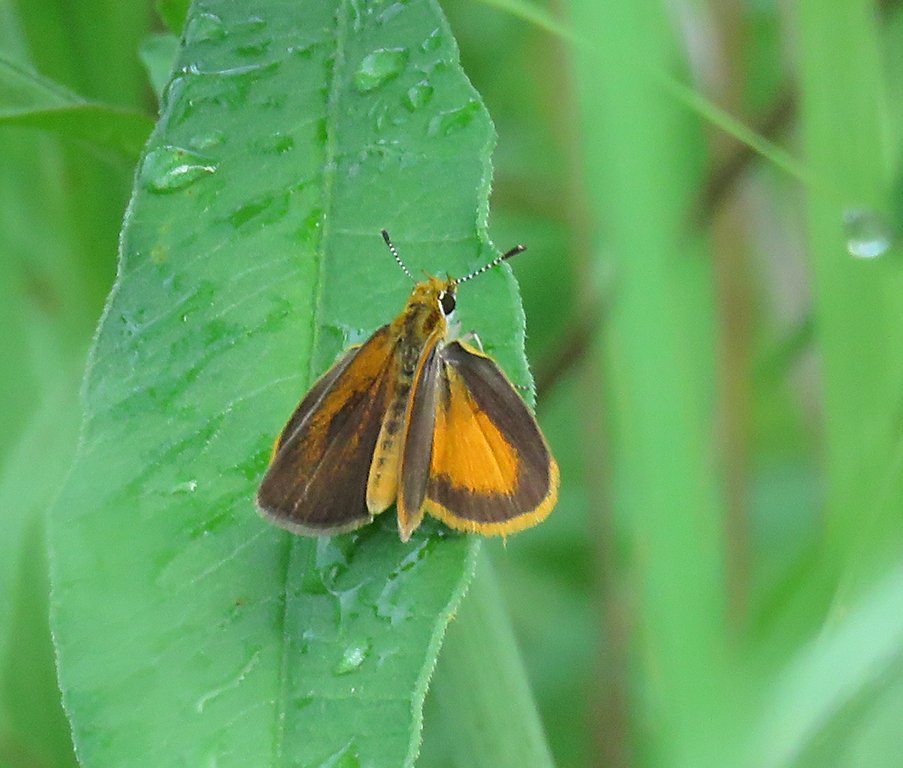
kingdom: Animalia
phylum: Arthropoda
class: Insecta
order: Lepidoptera
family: Hesperiidae
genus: Ancyloxypha
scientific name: Ancyloxypha numitor
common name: Least Skipper
